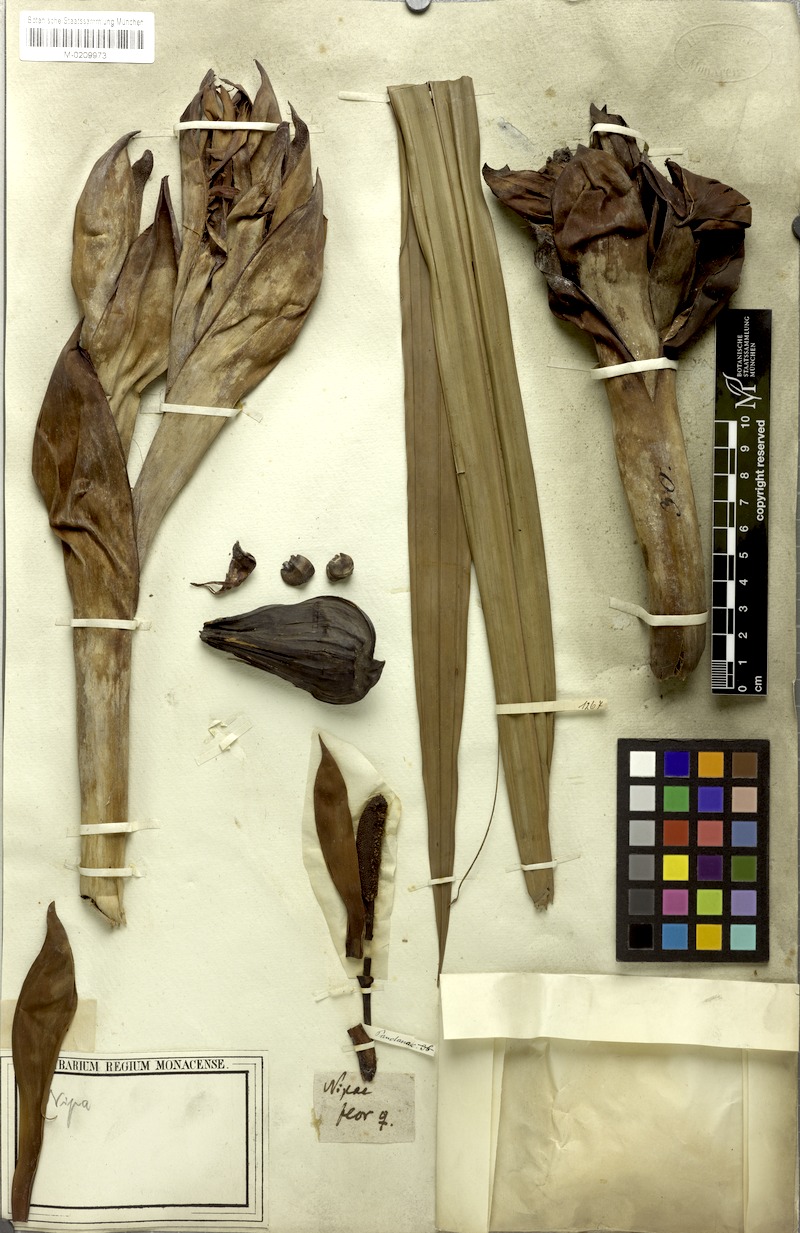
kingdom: Plantae
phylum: Tracheophyta
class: Liliopsida
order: Arecales
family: Arecaceae
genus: Nypa
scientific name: Nypa fruticans
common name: Mangrove palm
